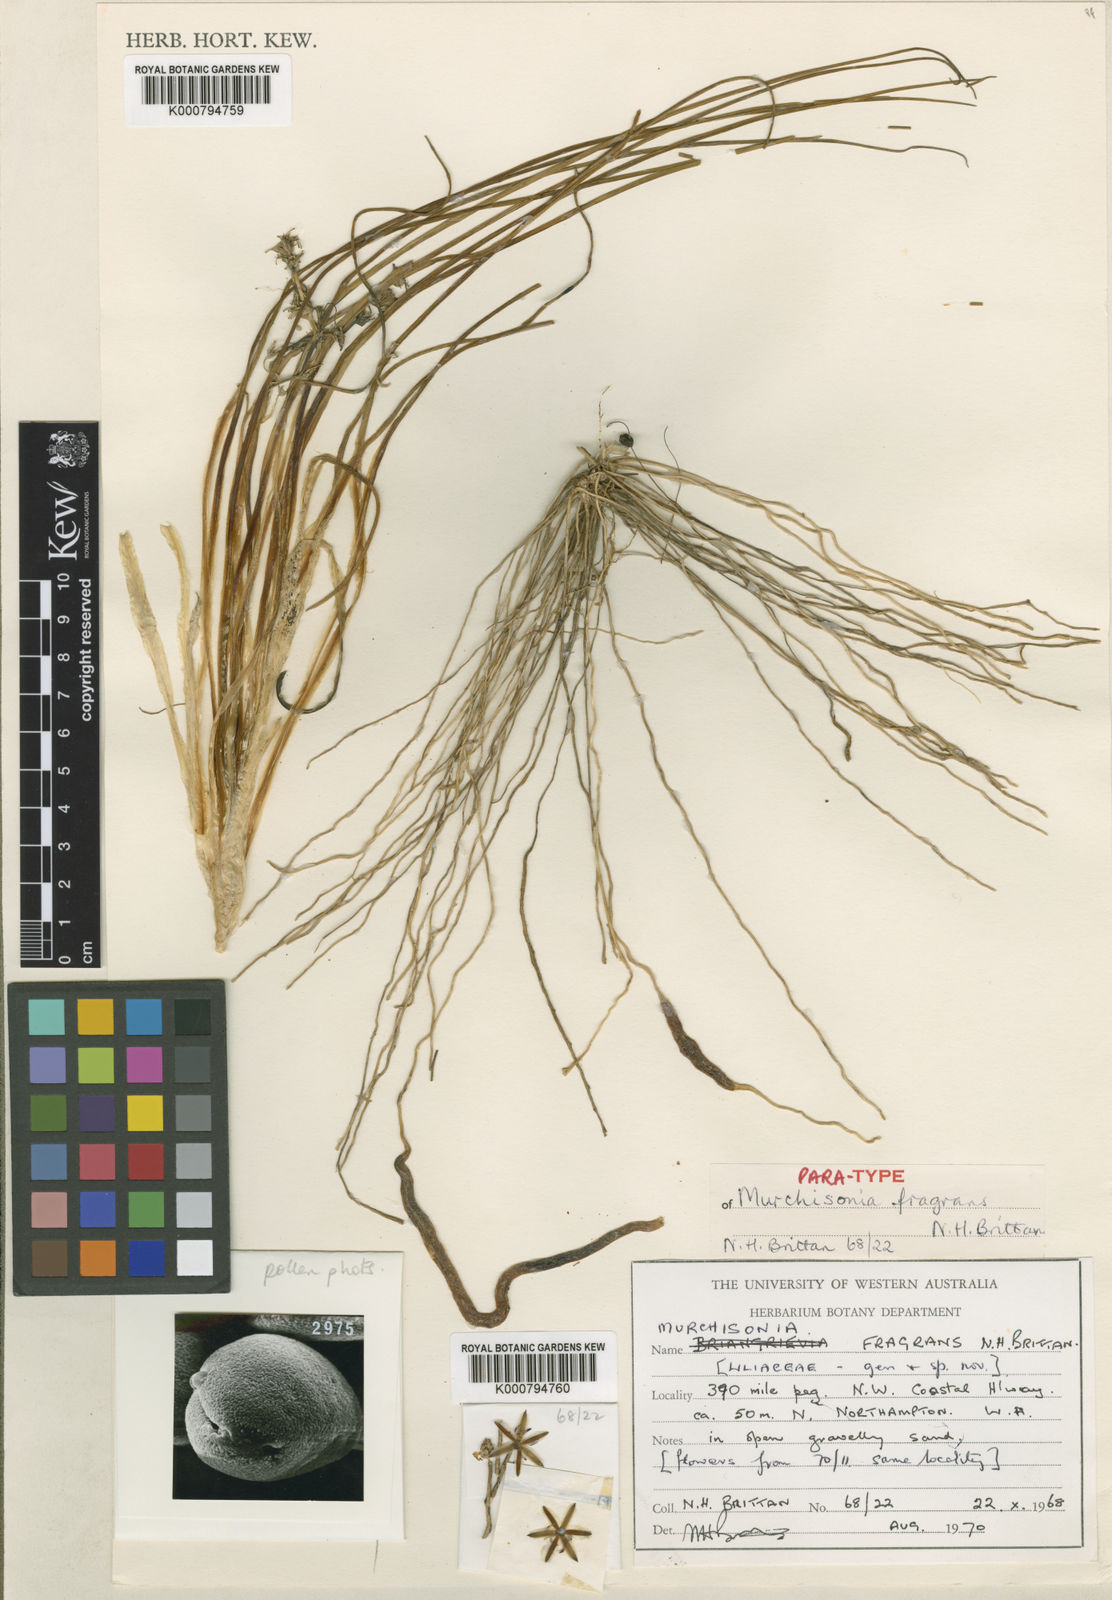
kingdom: Plantae
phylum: Tracheophyta
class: Liliopsida
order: Asparagales
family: Asparagaceae
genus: Thysanotus
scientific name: Thysanotus fragrans
